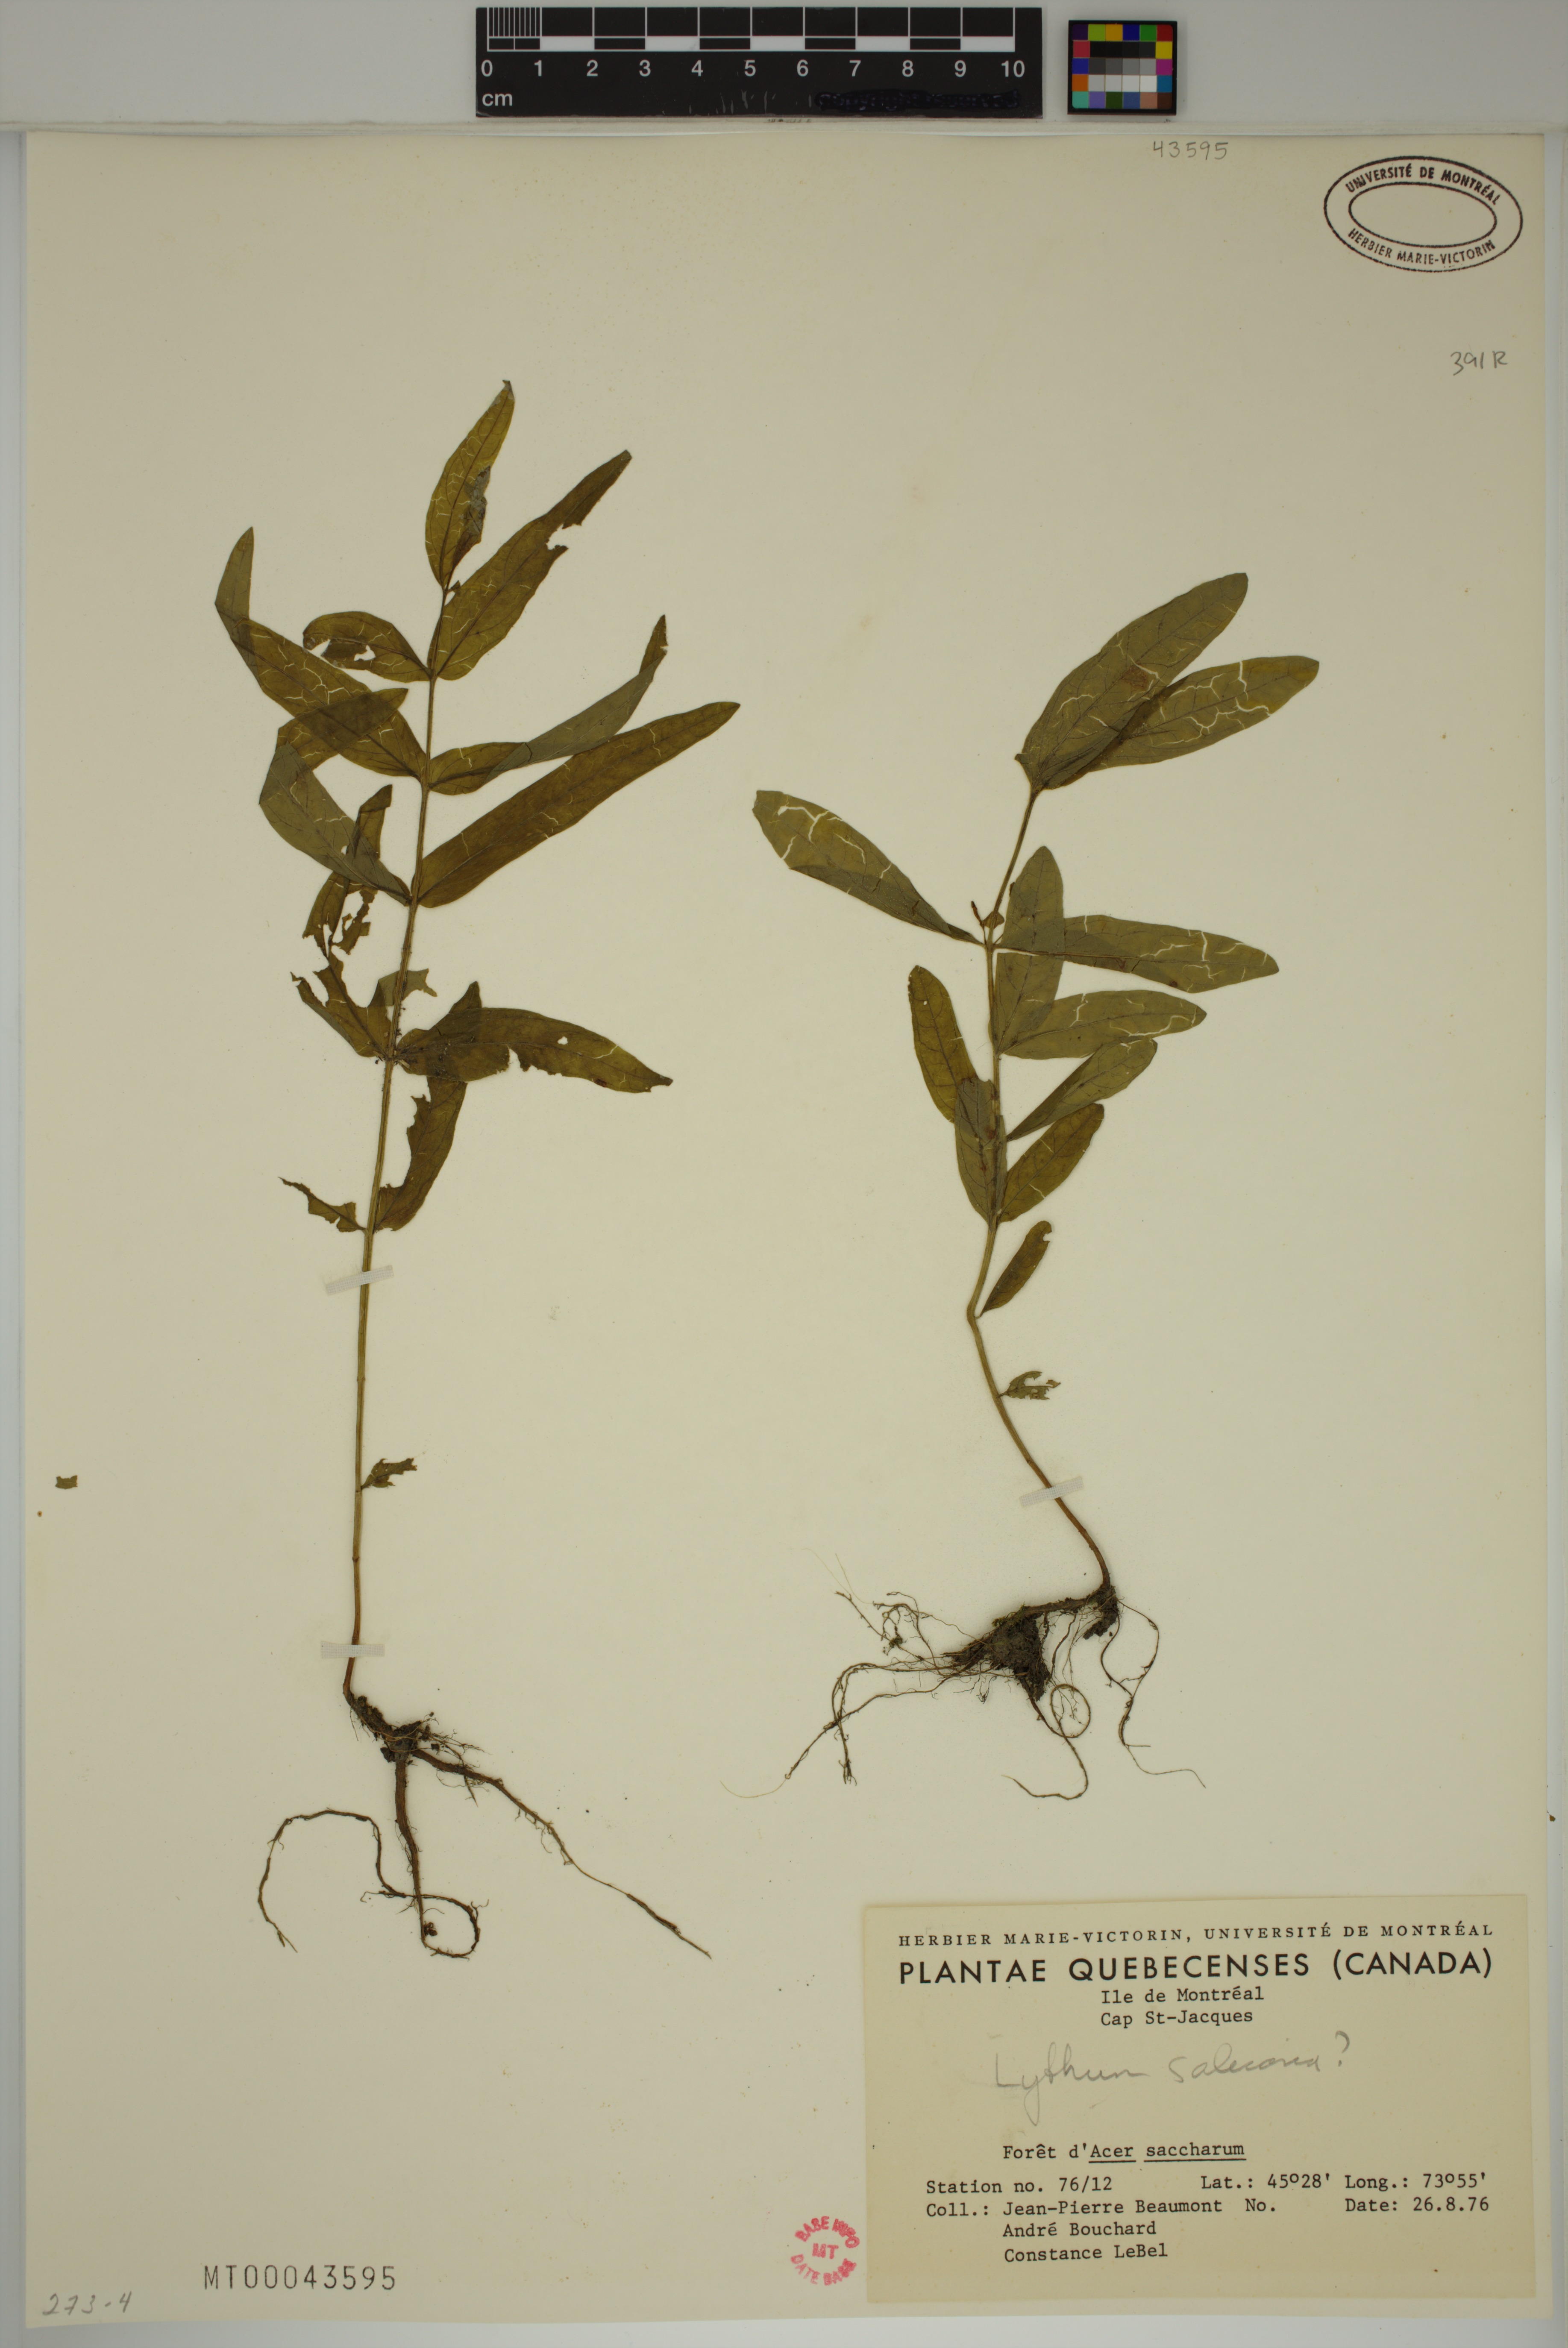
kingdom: Plantae
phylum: Tracheophyta
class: Magnoliopsida
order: Myrtales
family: Lythraceae
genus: Lythrum
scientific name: Lythrum salicaria
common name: Purple loosestrife
